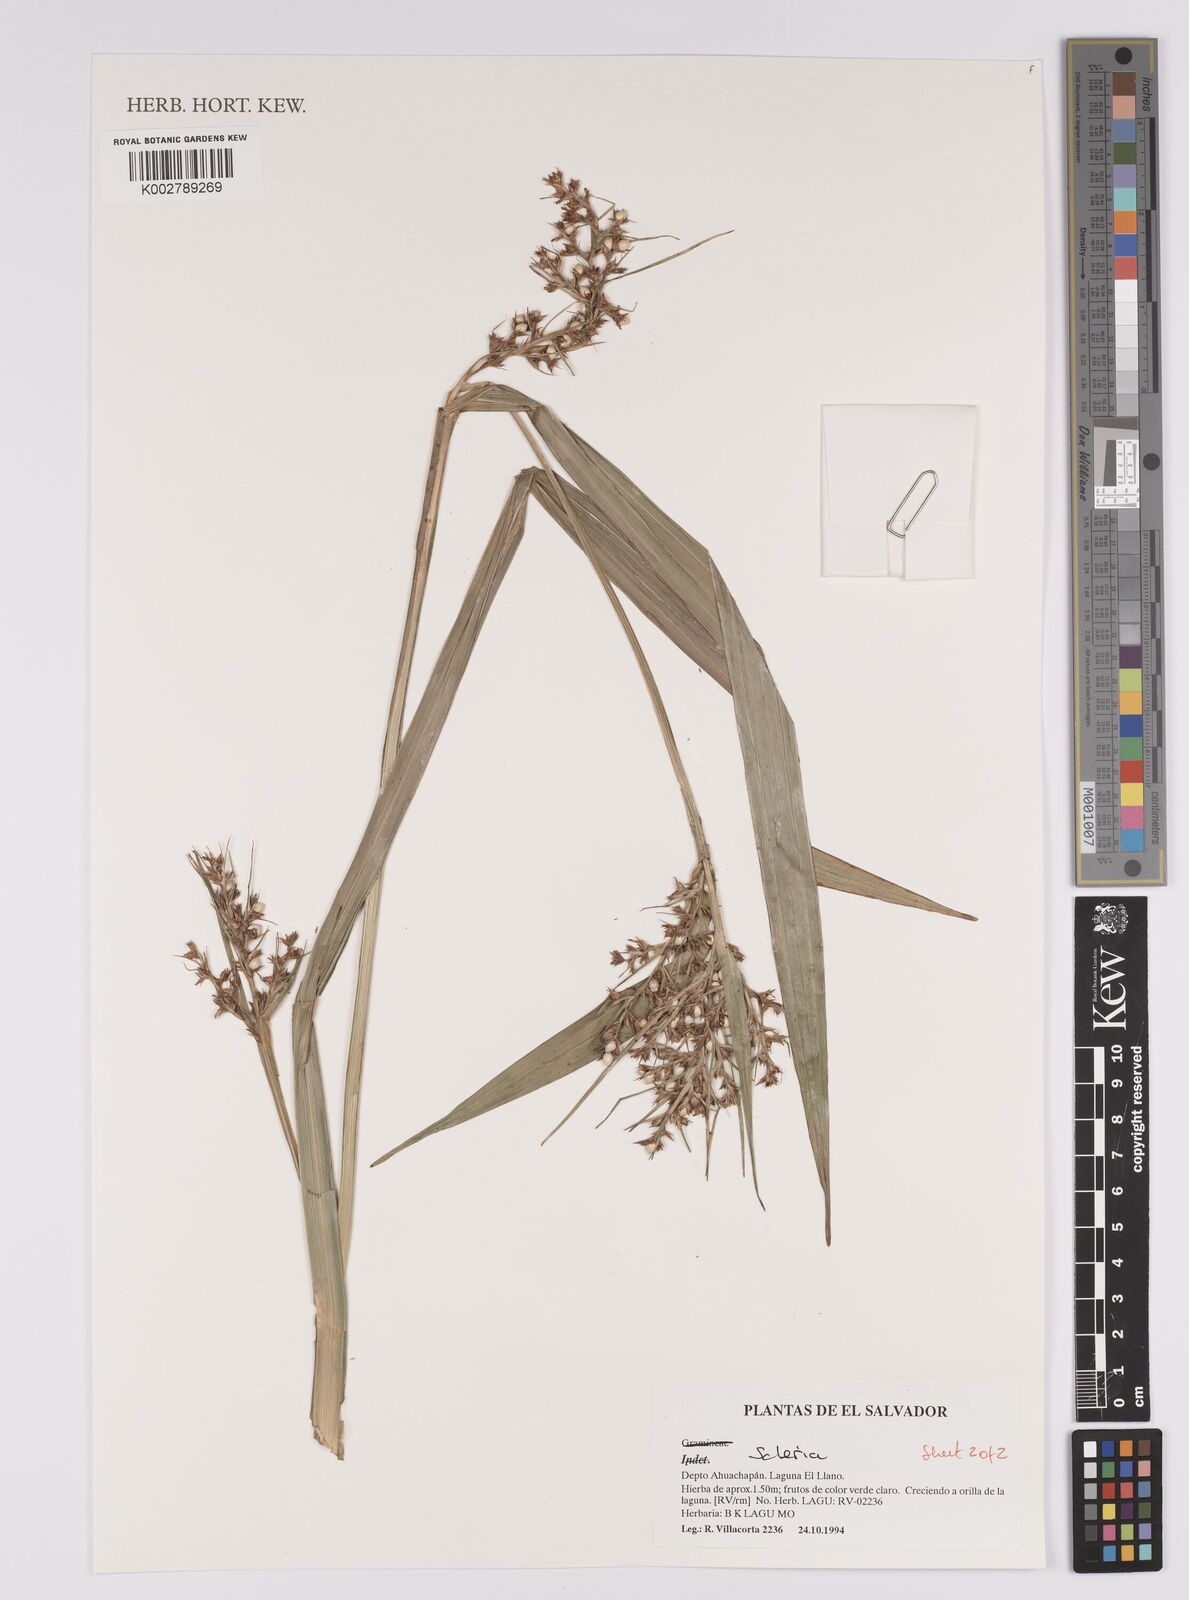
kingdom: Plantae
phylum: Tracheophyta
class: Liliopsida
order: Poales
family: Cyperaceae
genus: Scleria
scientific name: Scleria
